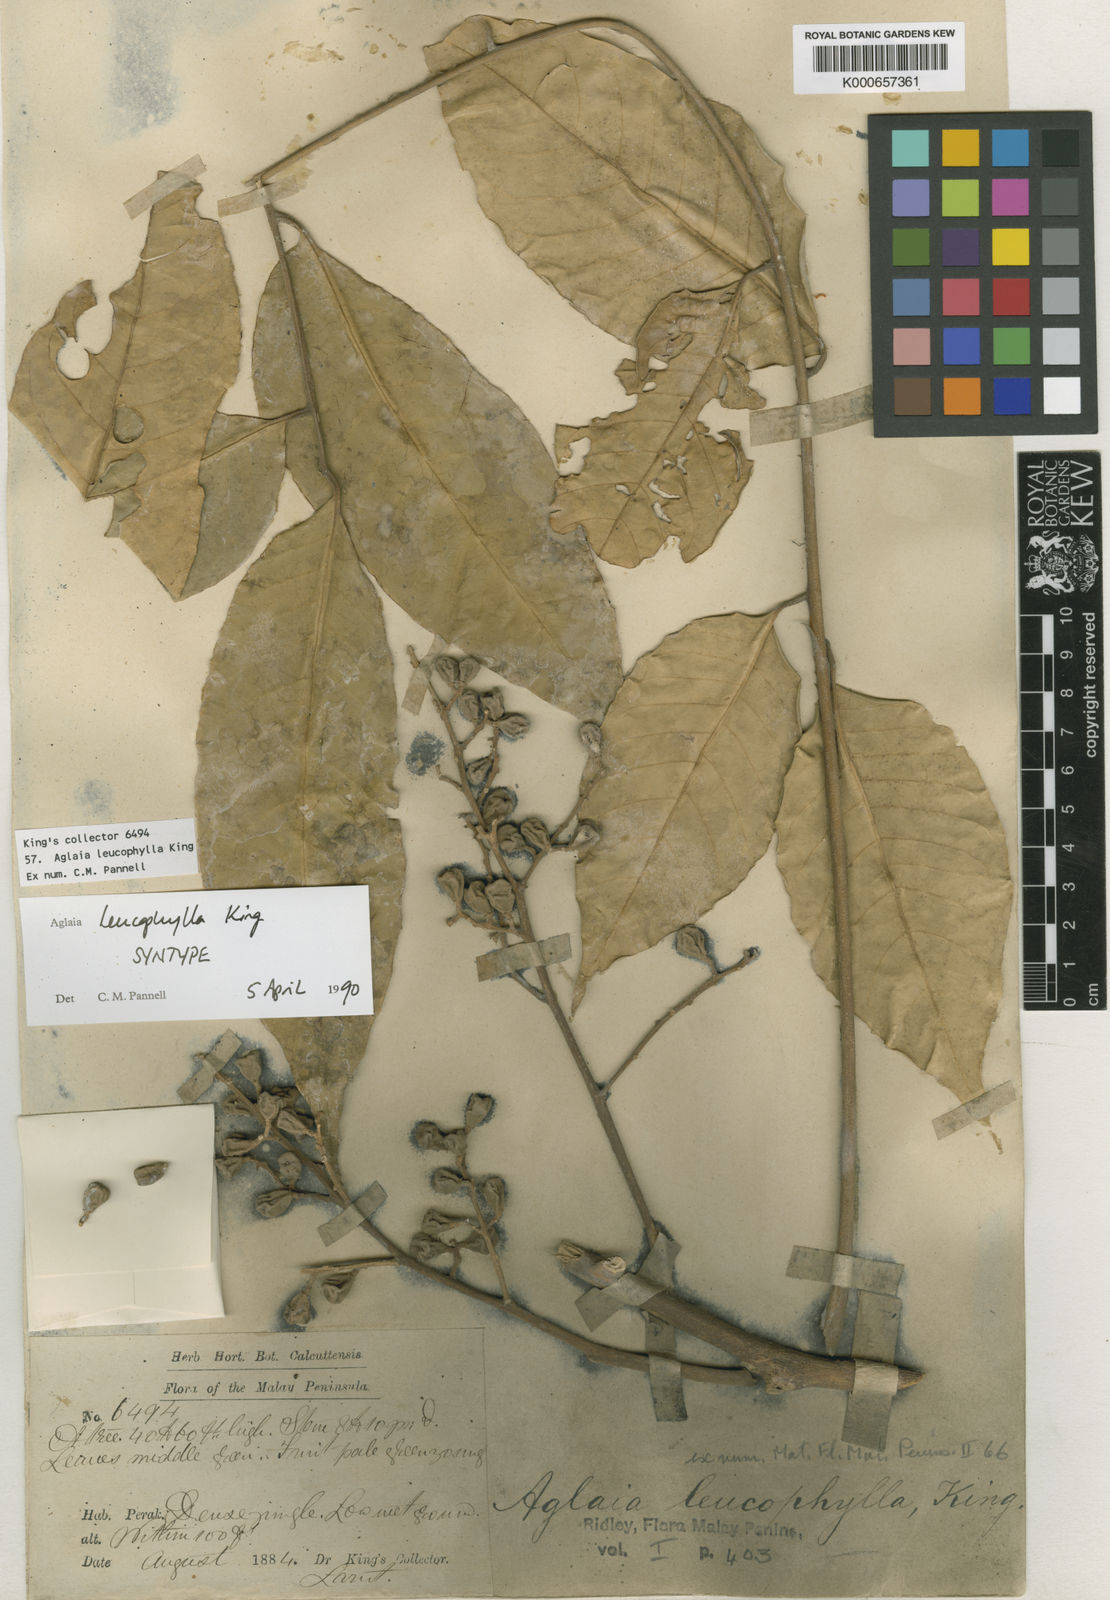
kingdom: Plantae
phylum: Tracheophyta
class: Magnoliopsida
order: Sapindales
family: Meliaceae
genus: Aglaia
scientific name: Aglaia leucophylla
